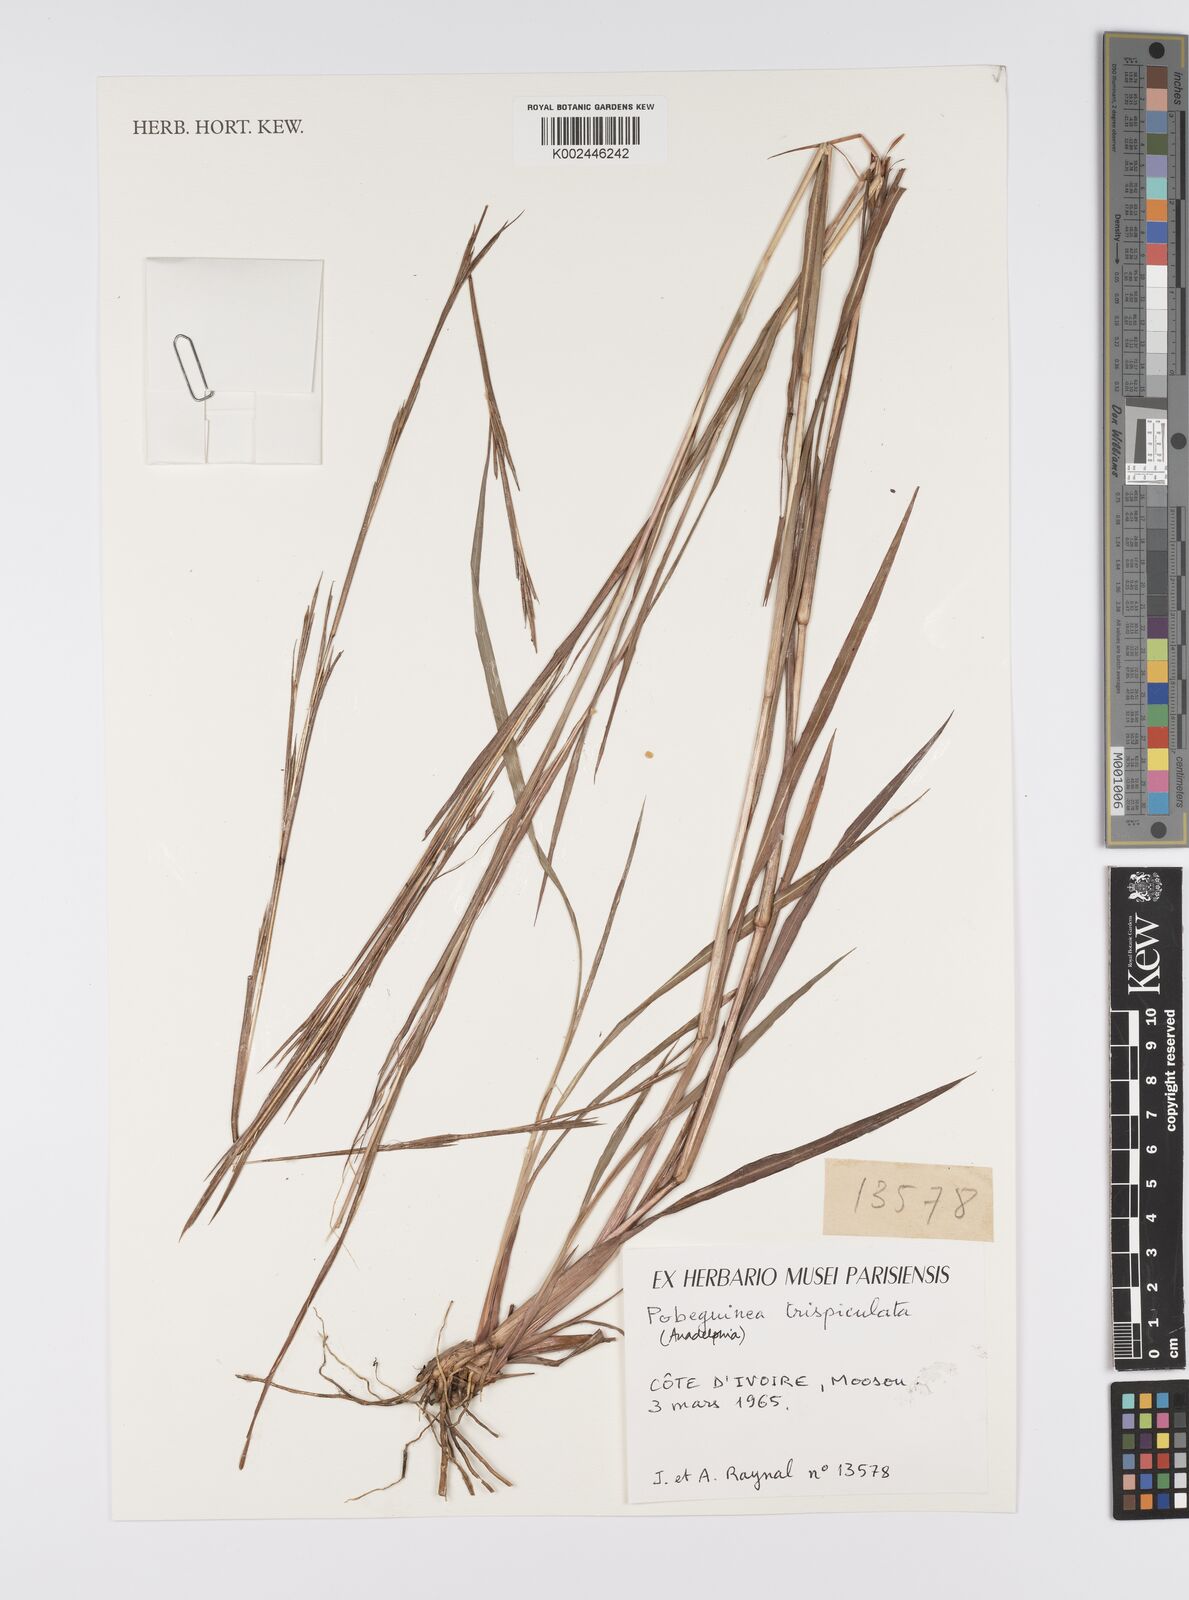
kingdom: Plantae
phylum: Tracheophyta
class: Liliopsida
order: Poales
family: Poaceae
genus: Anadelphia
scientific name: Anadelphia trispiculata
